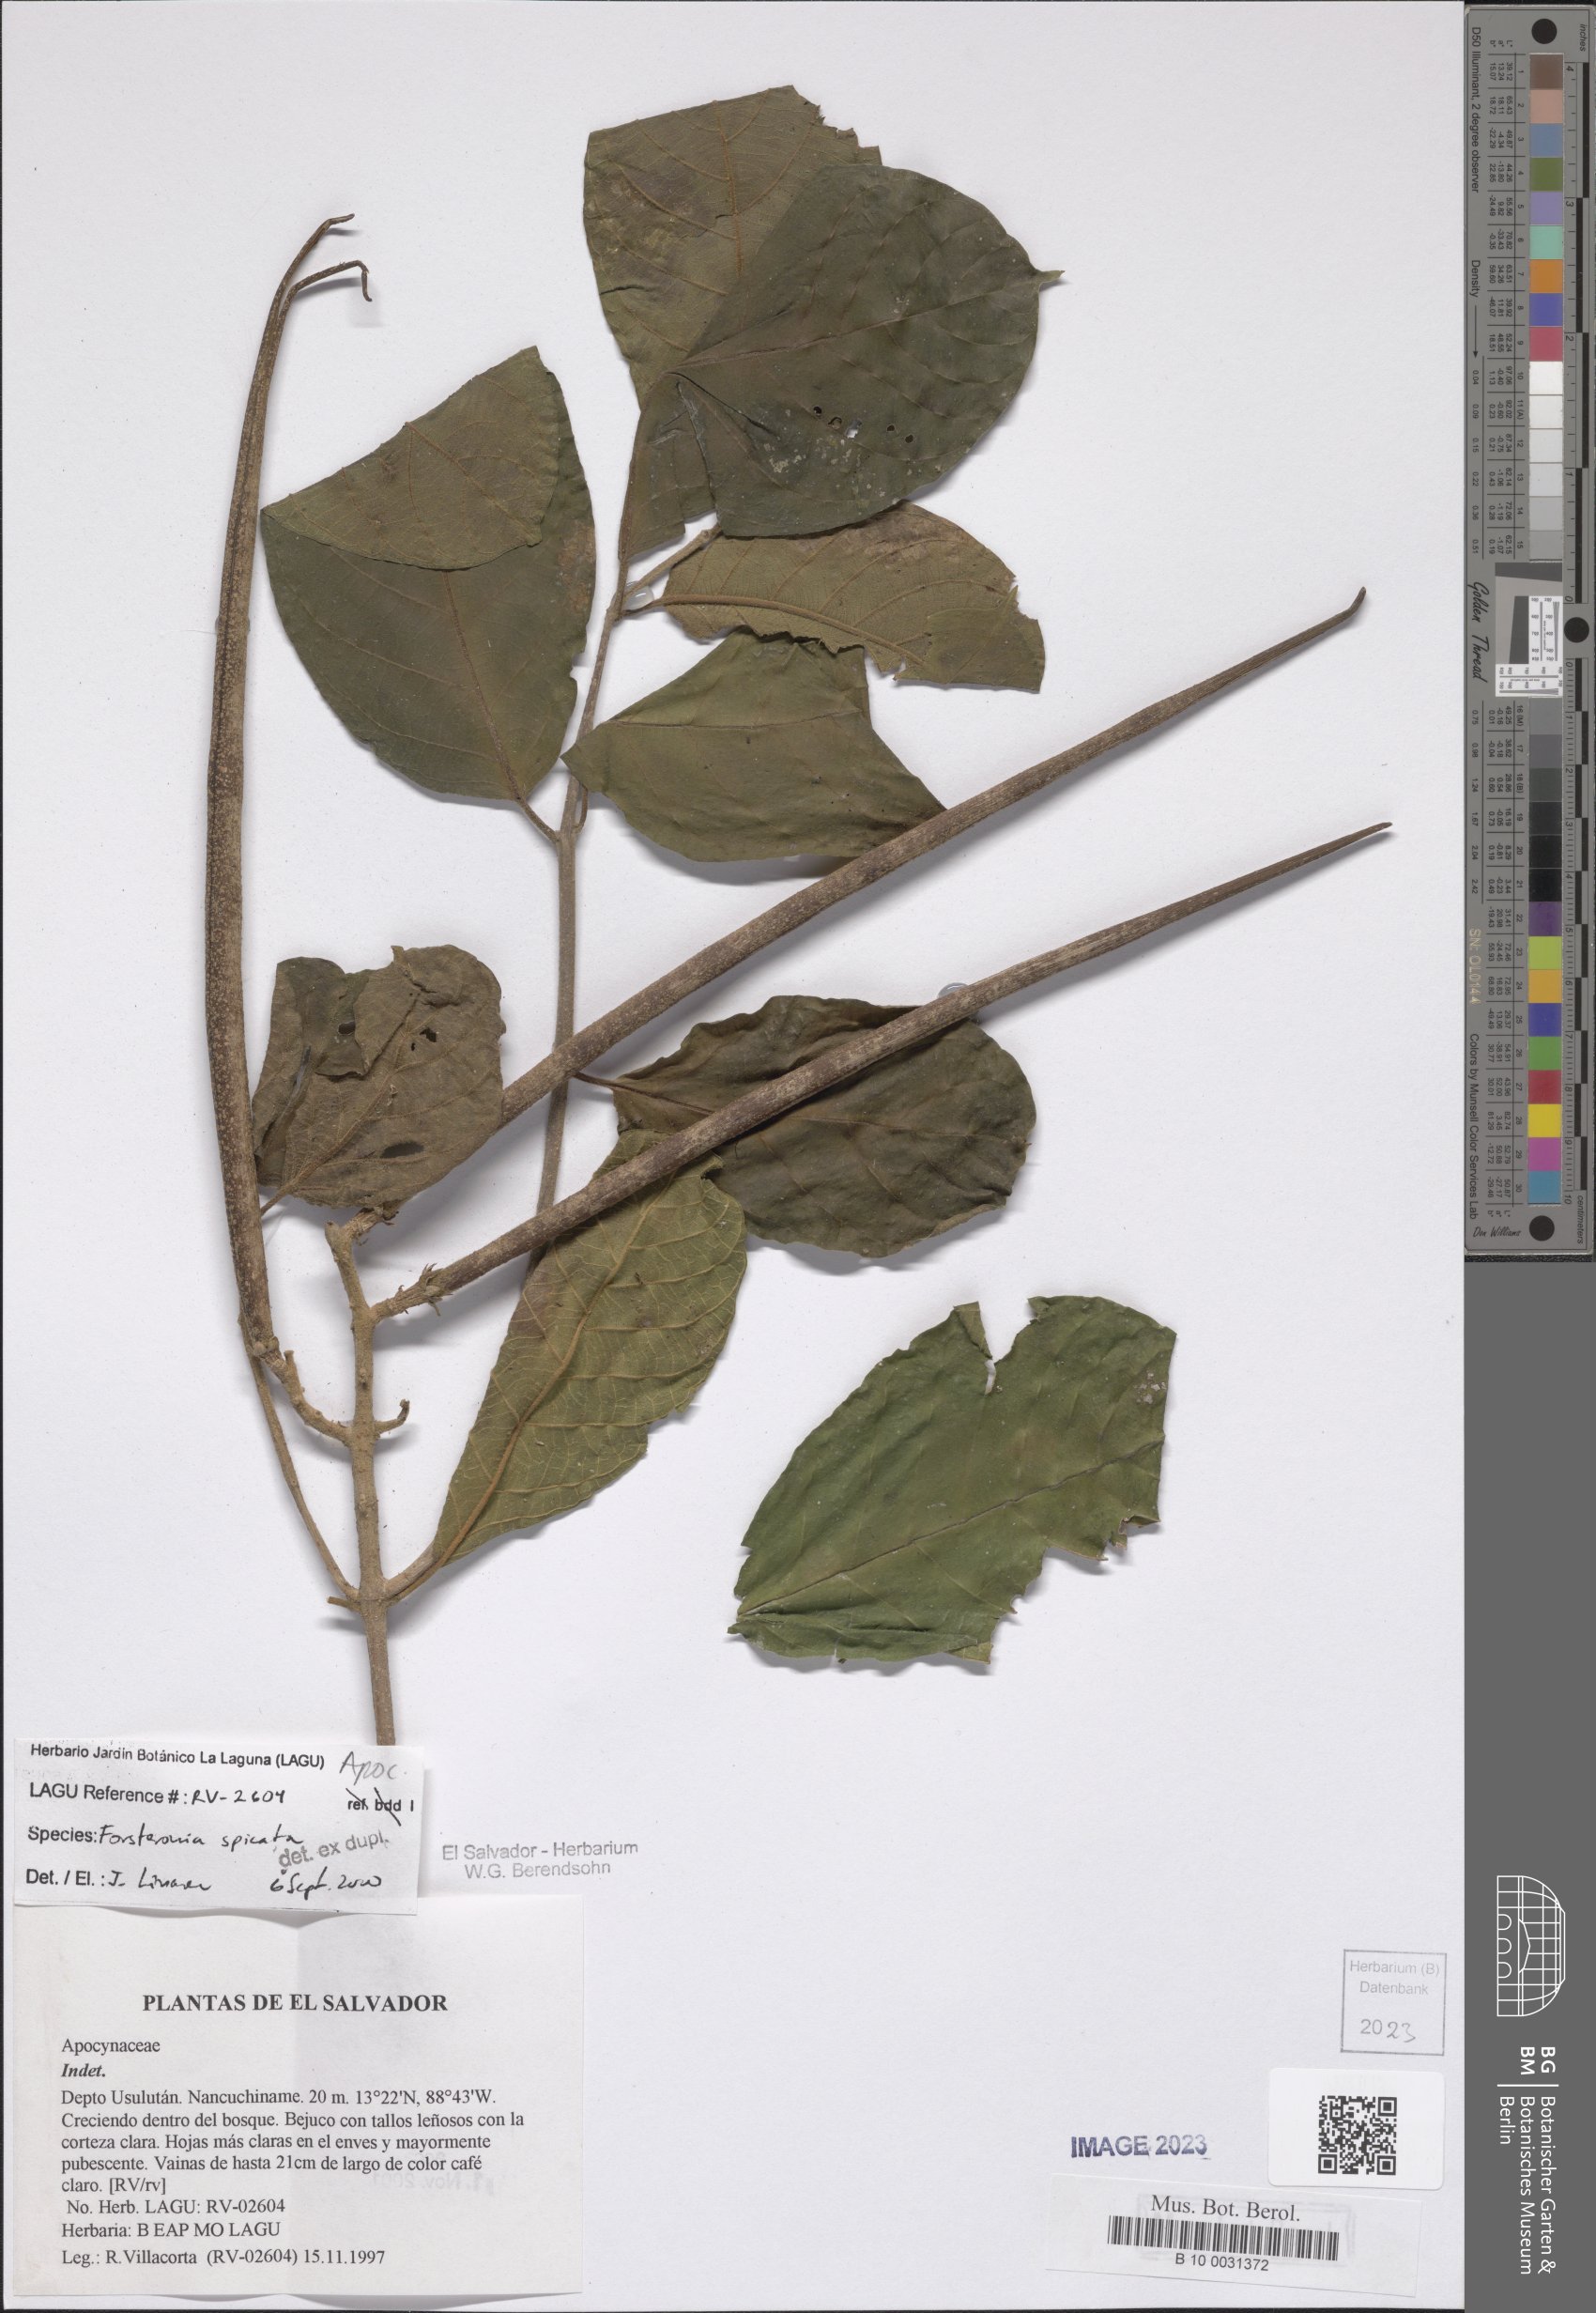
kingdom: Plantae
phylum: Tracheophyta
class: Magnoliopsida
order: Gentianales
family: Apocynaceae
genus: Forsteronia
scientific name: Forsteronia spicata
